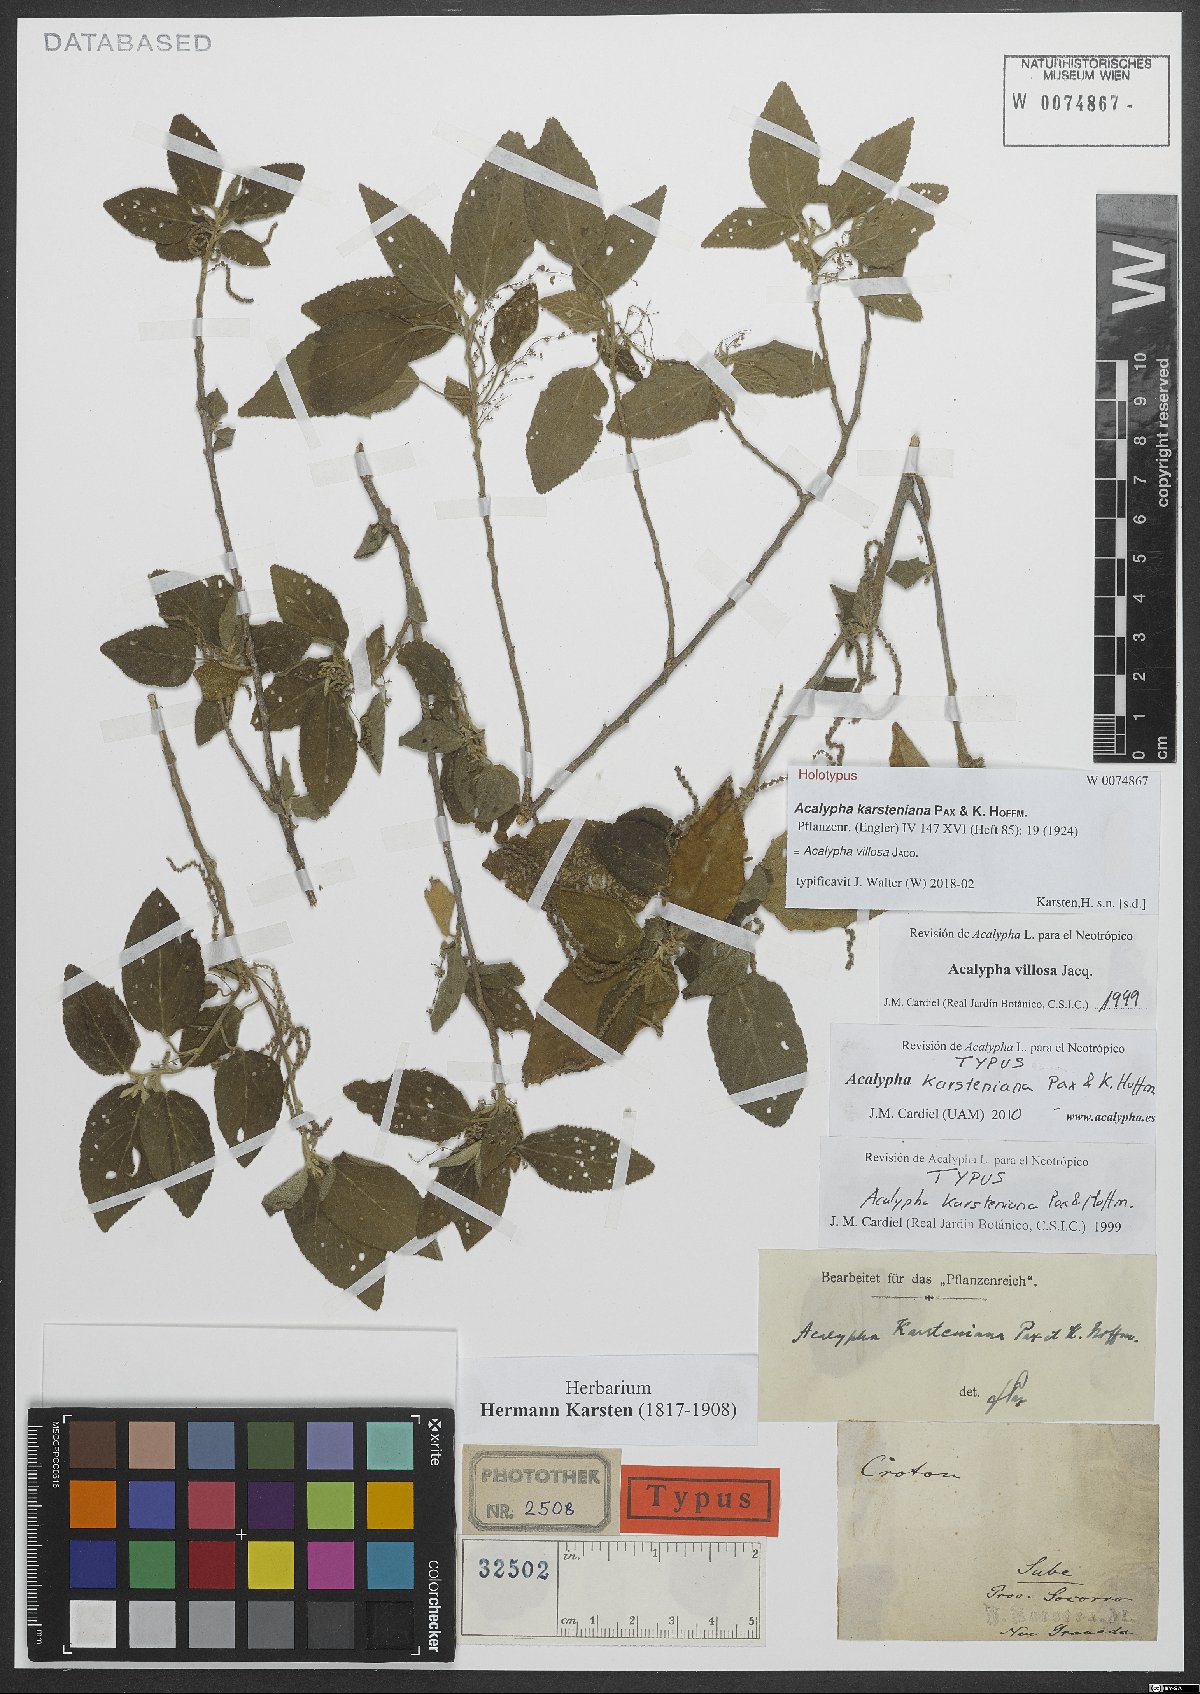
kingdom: Plantae
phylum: Tracheophyta
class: Magnoliopsida
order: Malpighiales
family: Euphorbiaceae
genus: Acalypha
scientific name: Acalypha villosa
